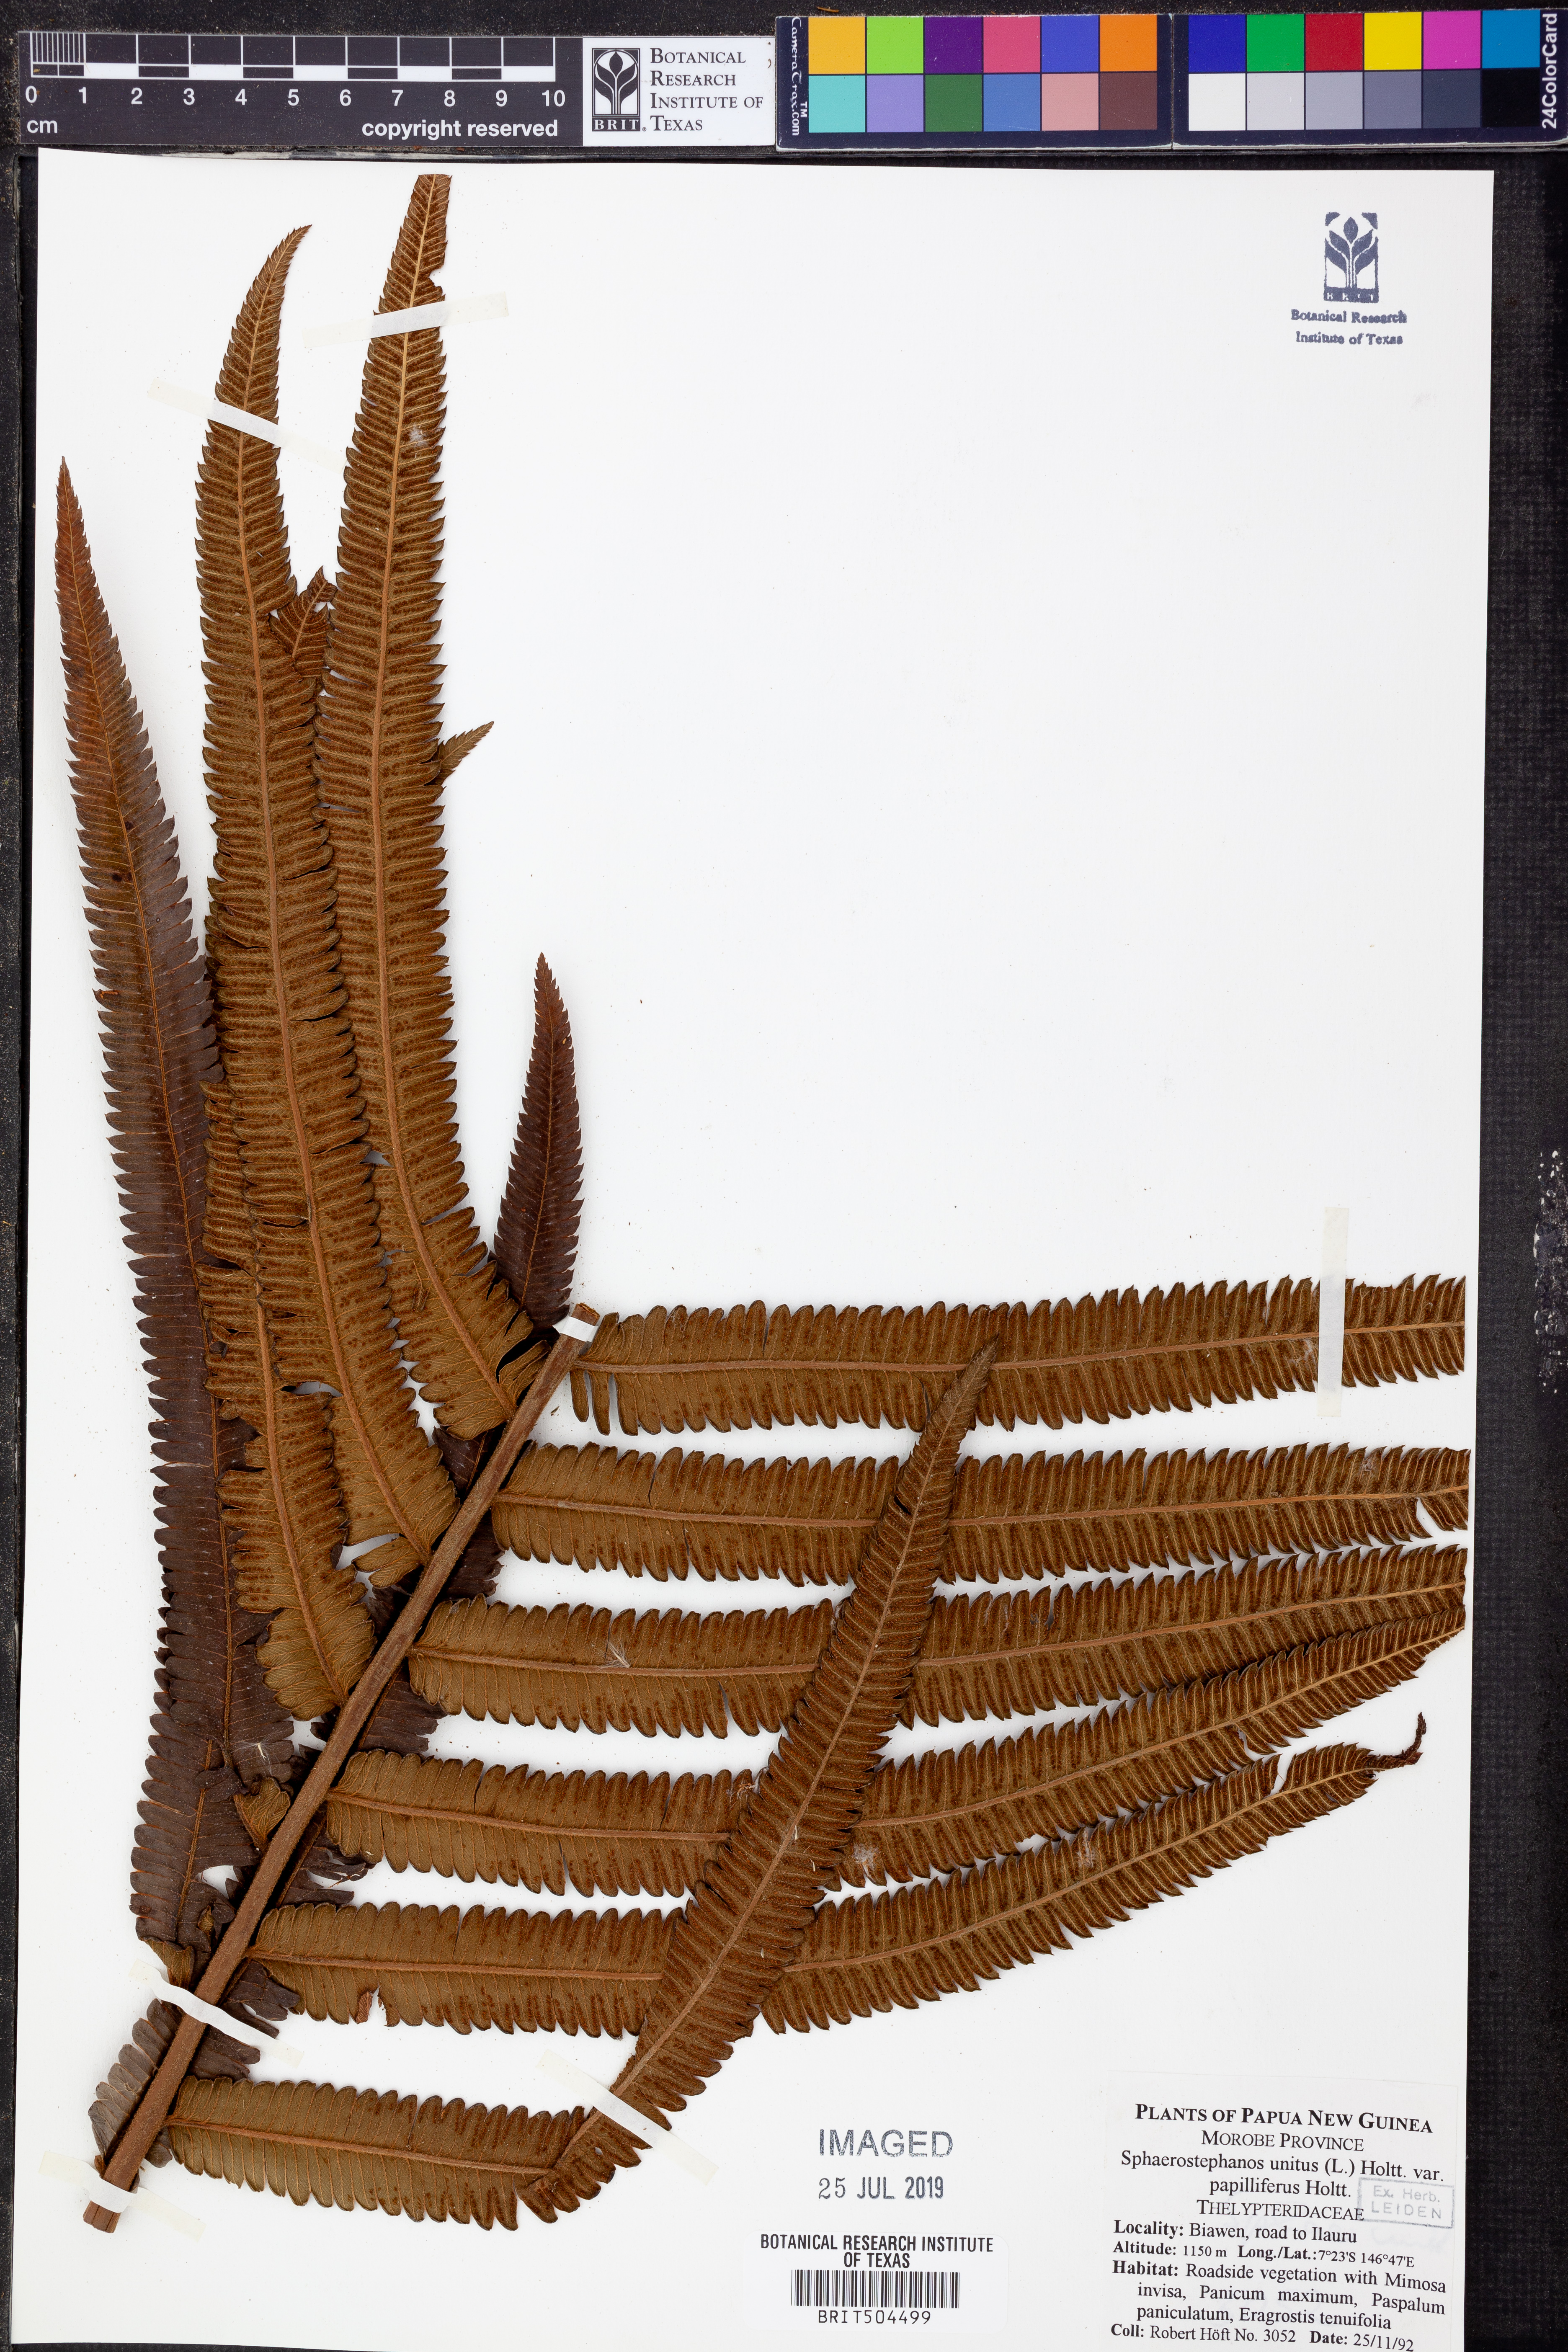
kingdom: Plantae
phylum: Tracheophyta
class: Polypodiopsida
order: Polypodiales
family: Thelypteridaceae
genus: Strophocaulon
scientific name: Strophocaulon unitum
